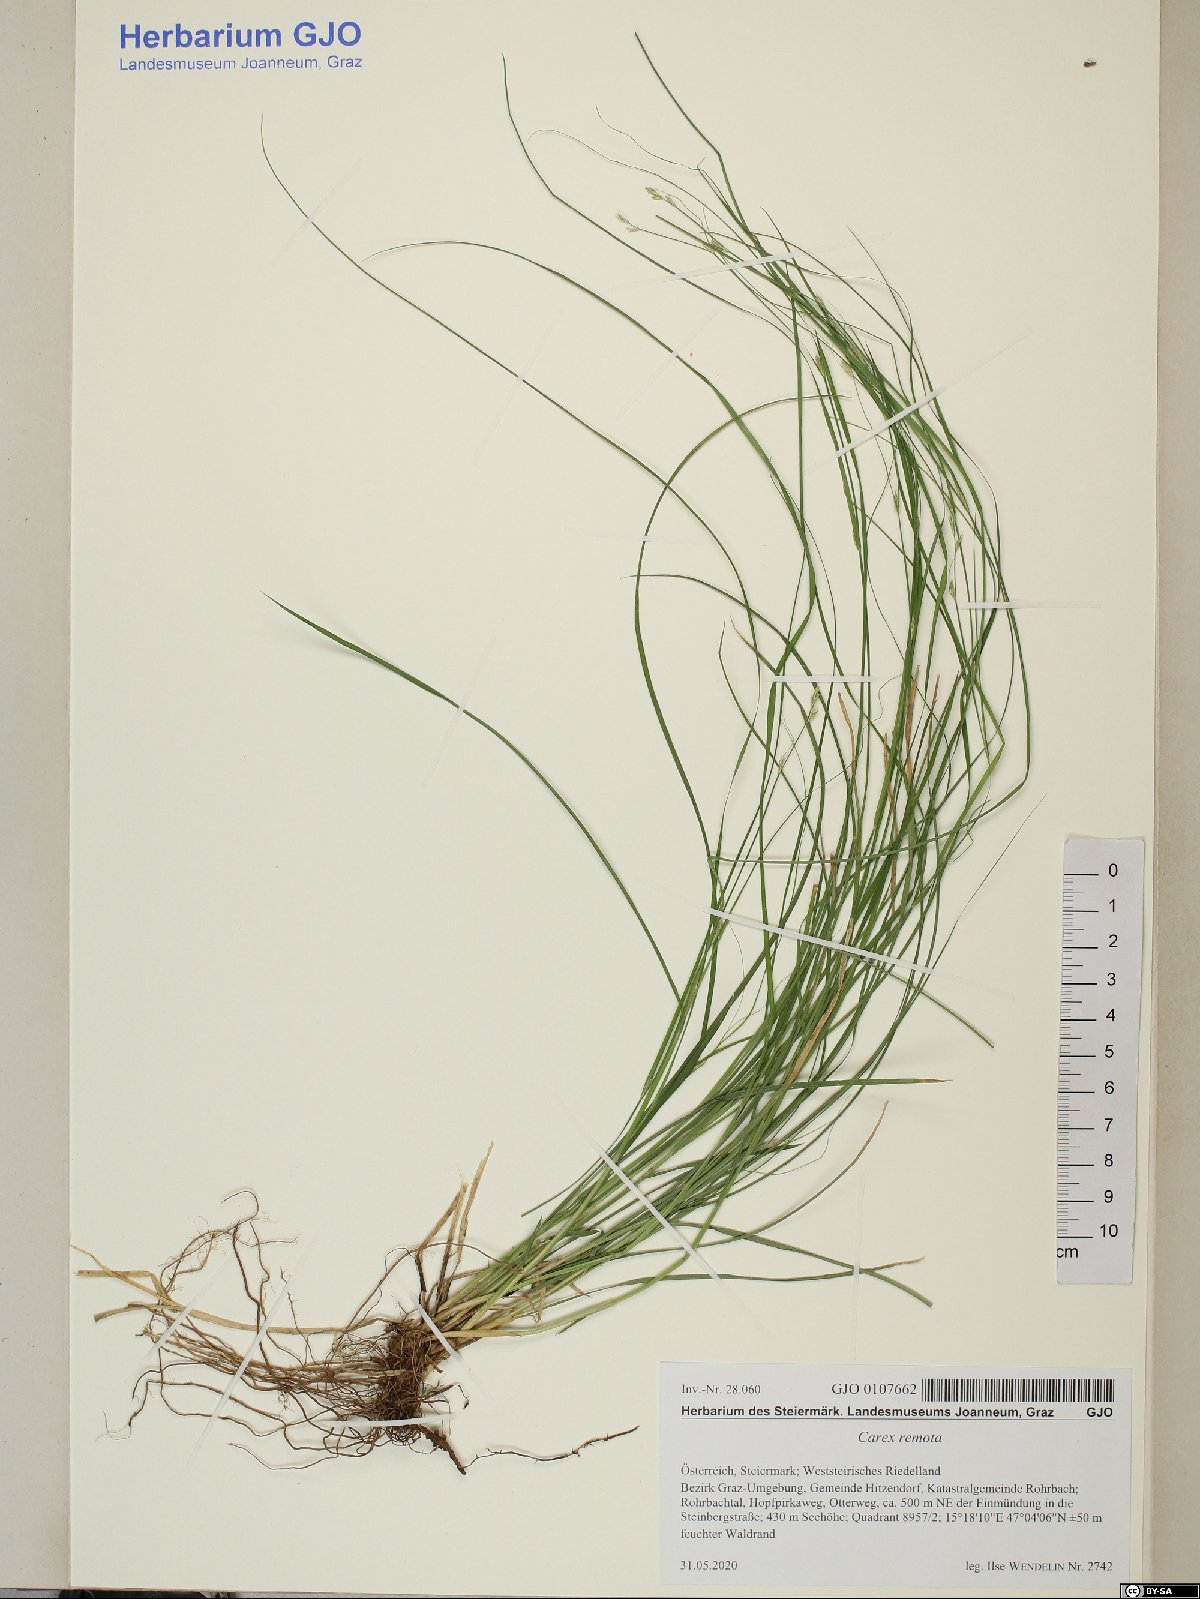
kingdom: Plantae
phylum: Tracheophyta
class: Liliopsida
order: Poales
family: Cyperaceae
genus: Carex
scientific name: Carex remota
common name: Remote sedge
